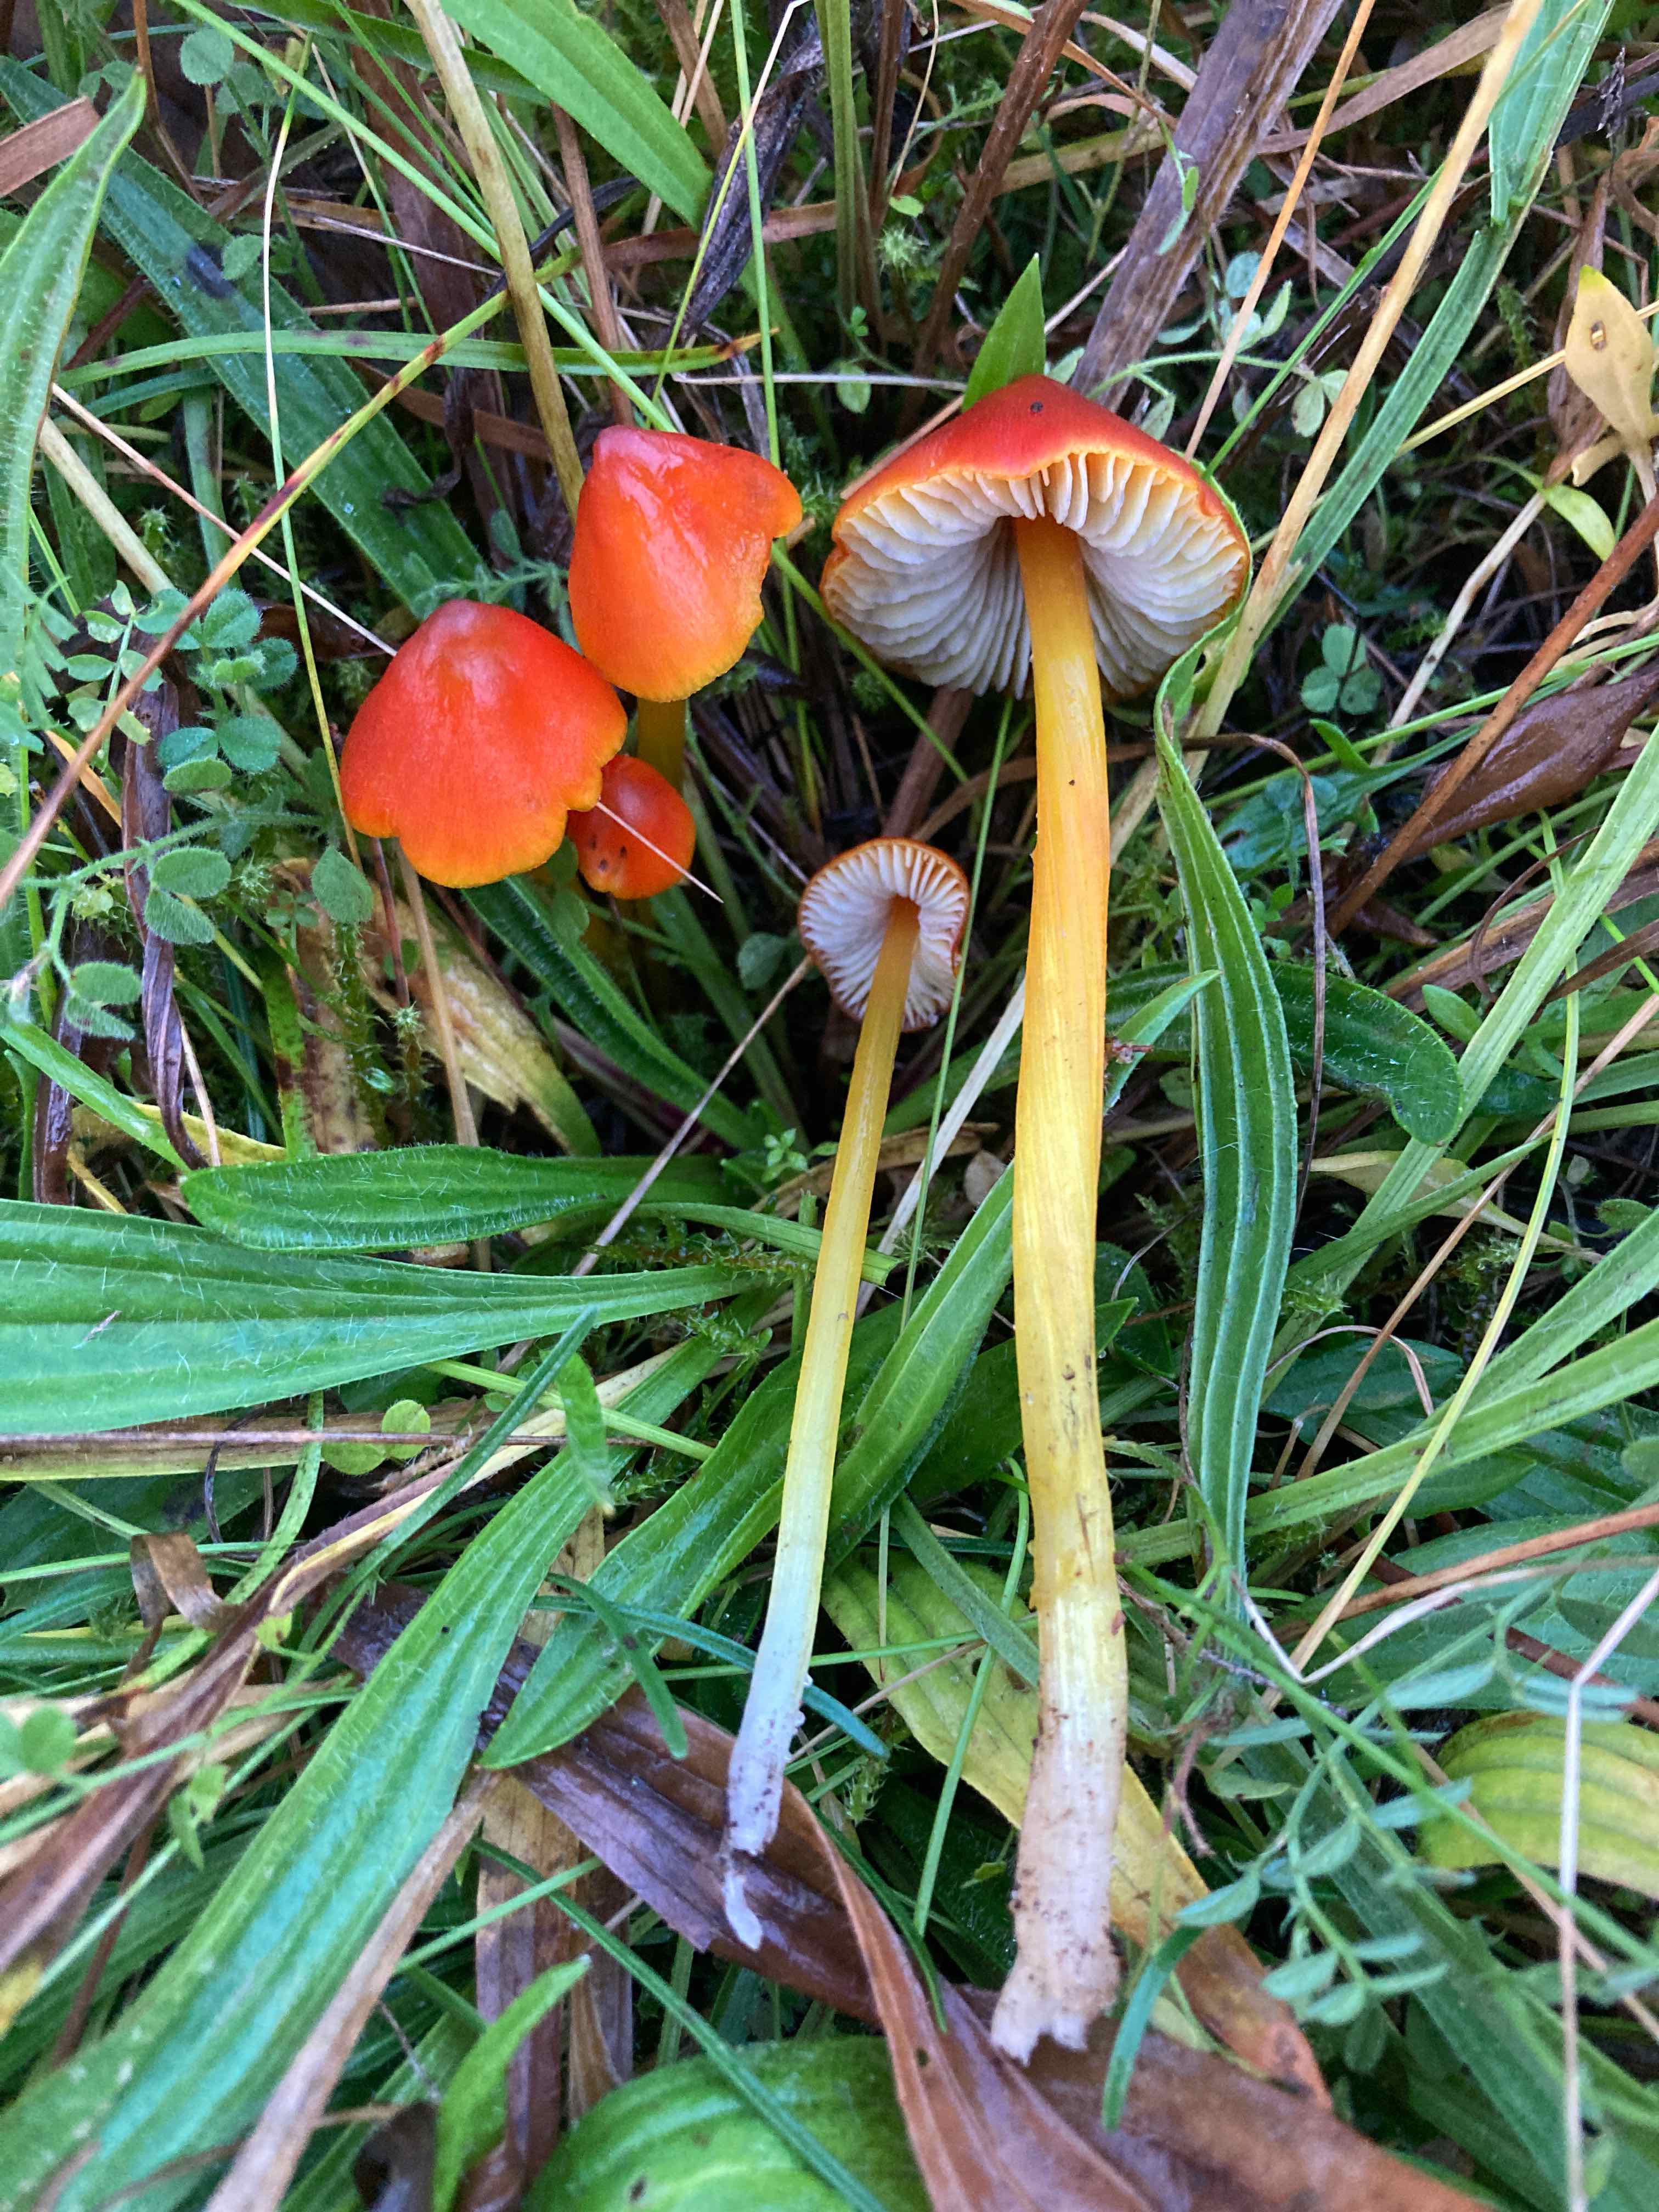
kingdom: Fungi
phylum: Basidiomycota
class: Agaricomycetes
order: Agaricales
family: Hygrophoraceae
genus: Hygrocybe
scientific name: Hygrocybe conica
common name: kegle-vokshat
